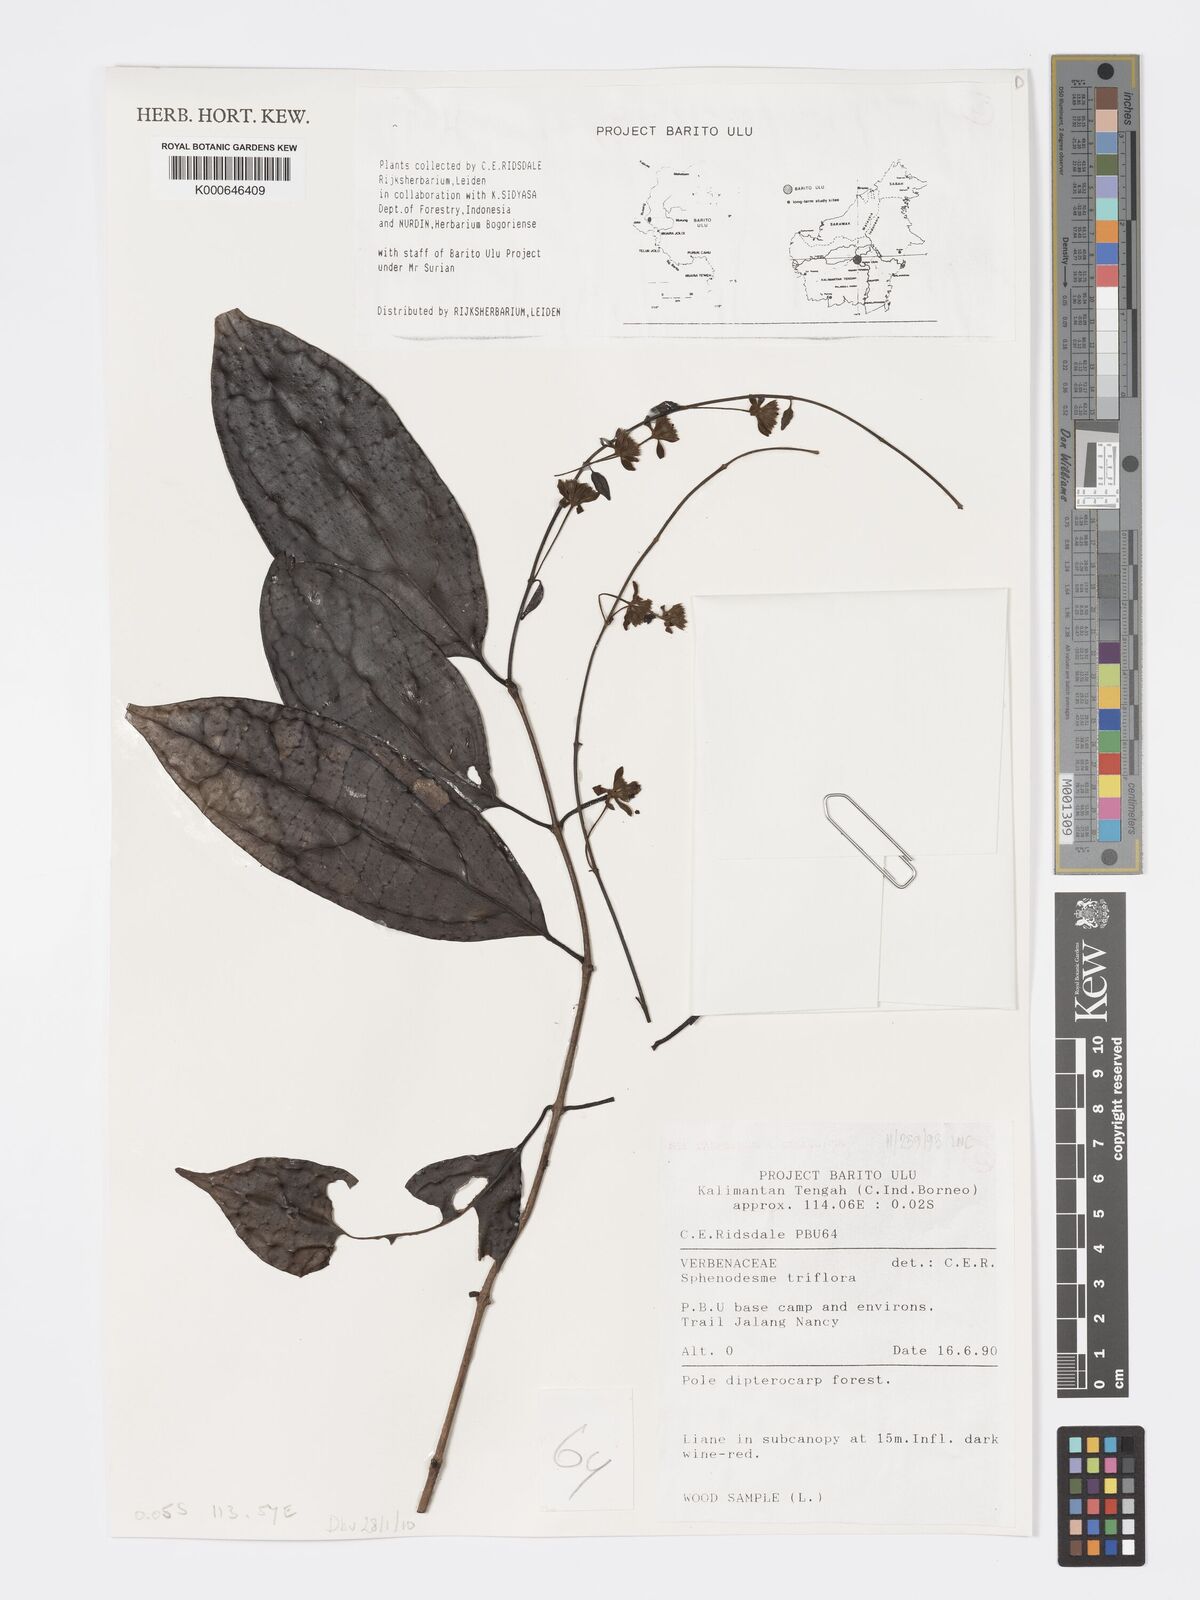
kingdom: Plantae
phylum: Tracheophyta
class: Magnoliopsida
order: Lamiales
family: Lamiaceae
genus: Sphenodesme
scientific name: Sphenodesme triflora
